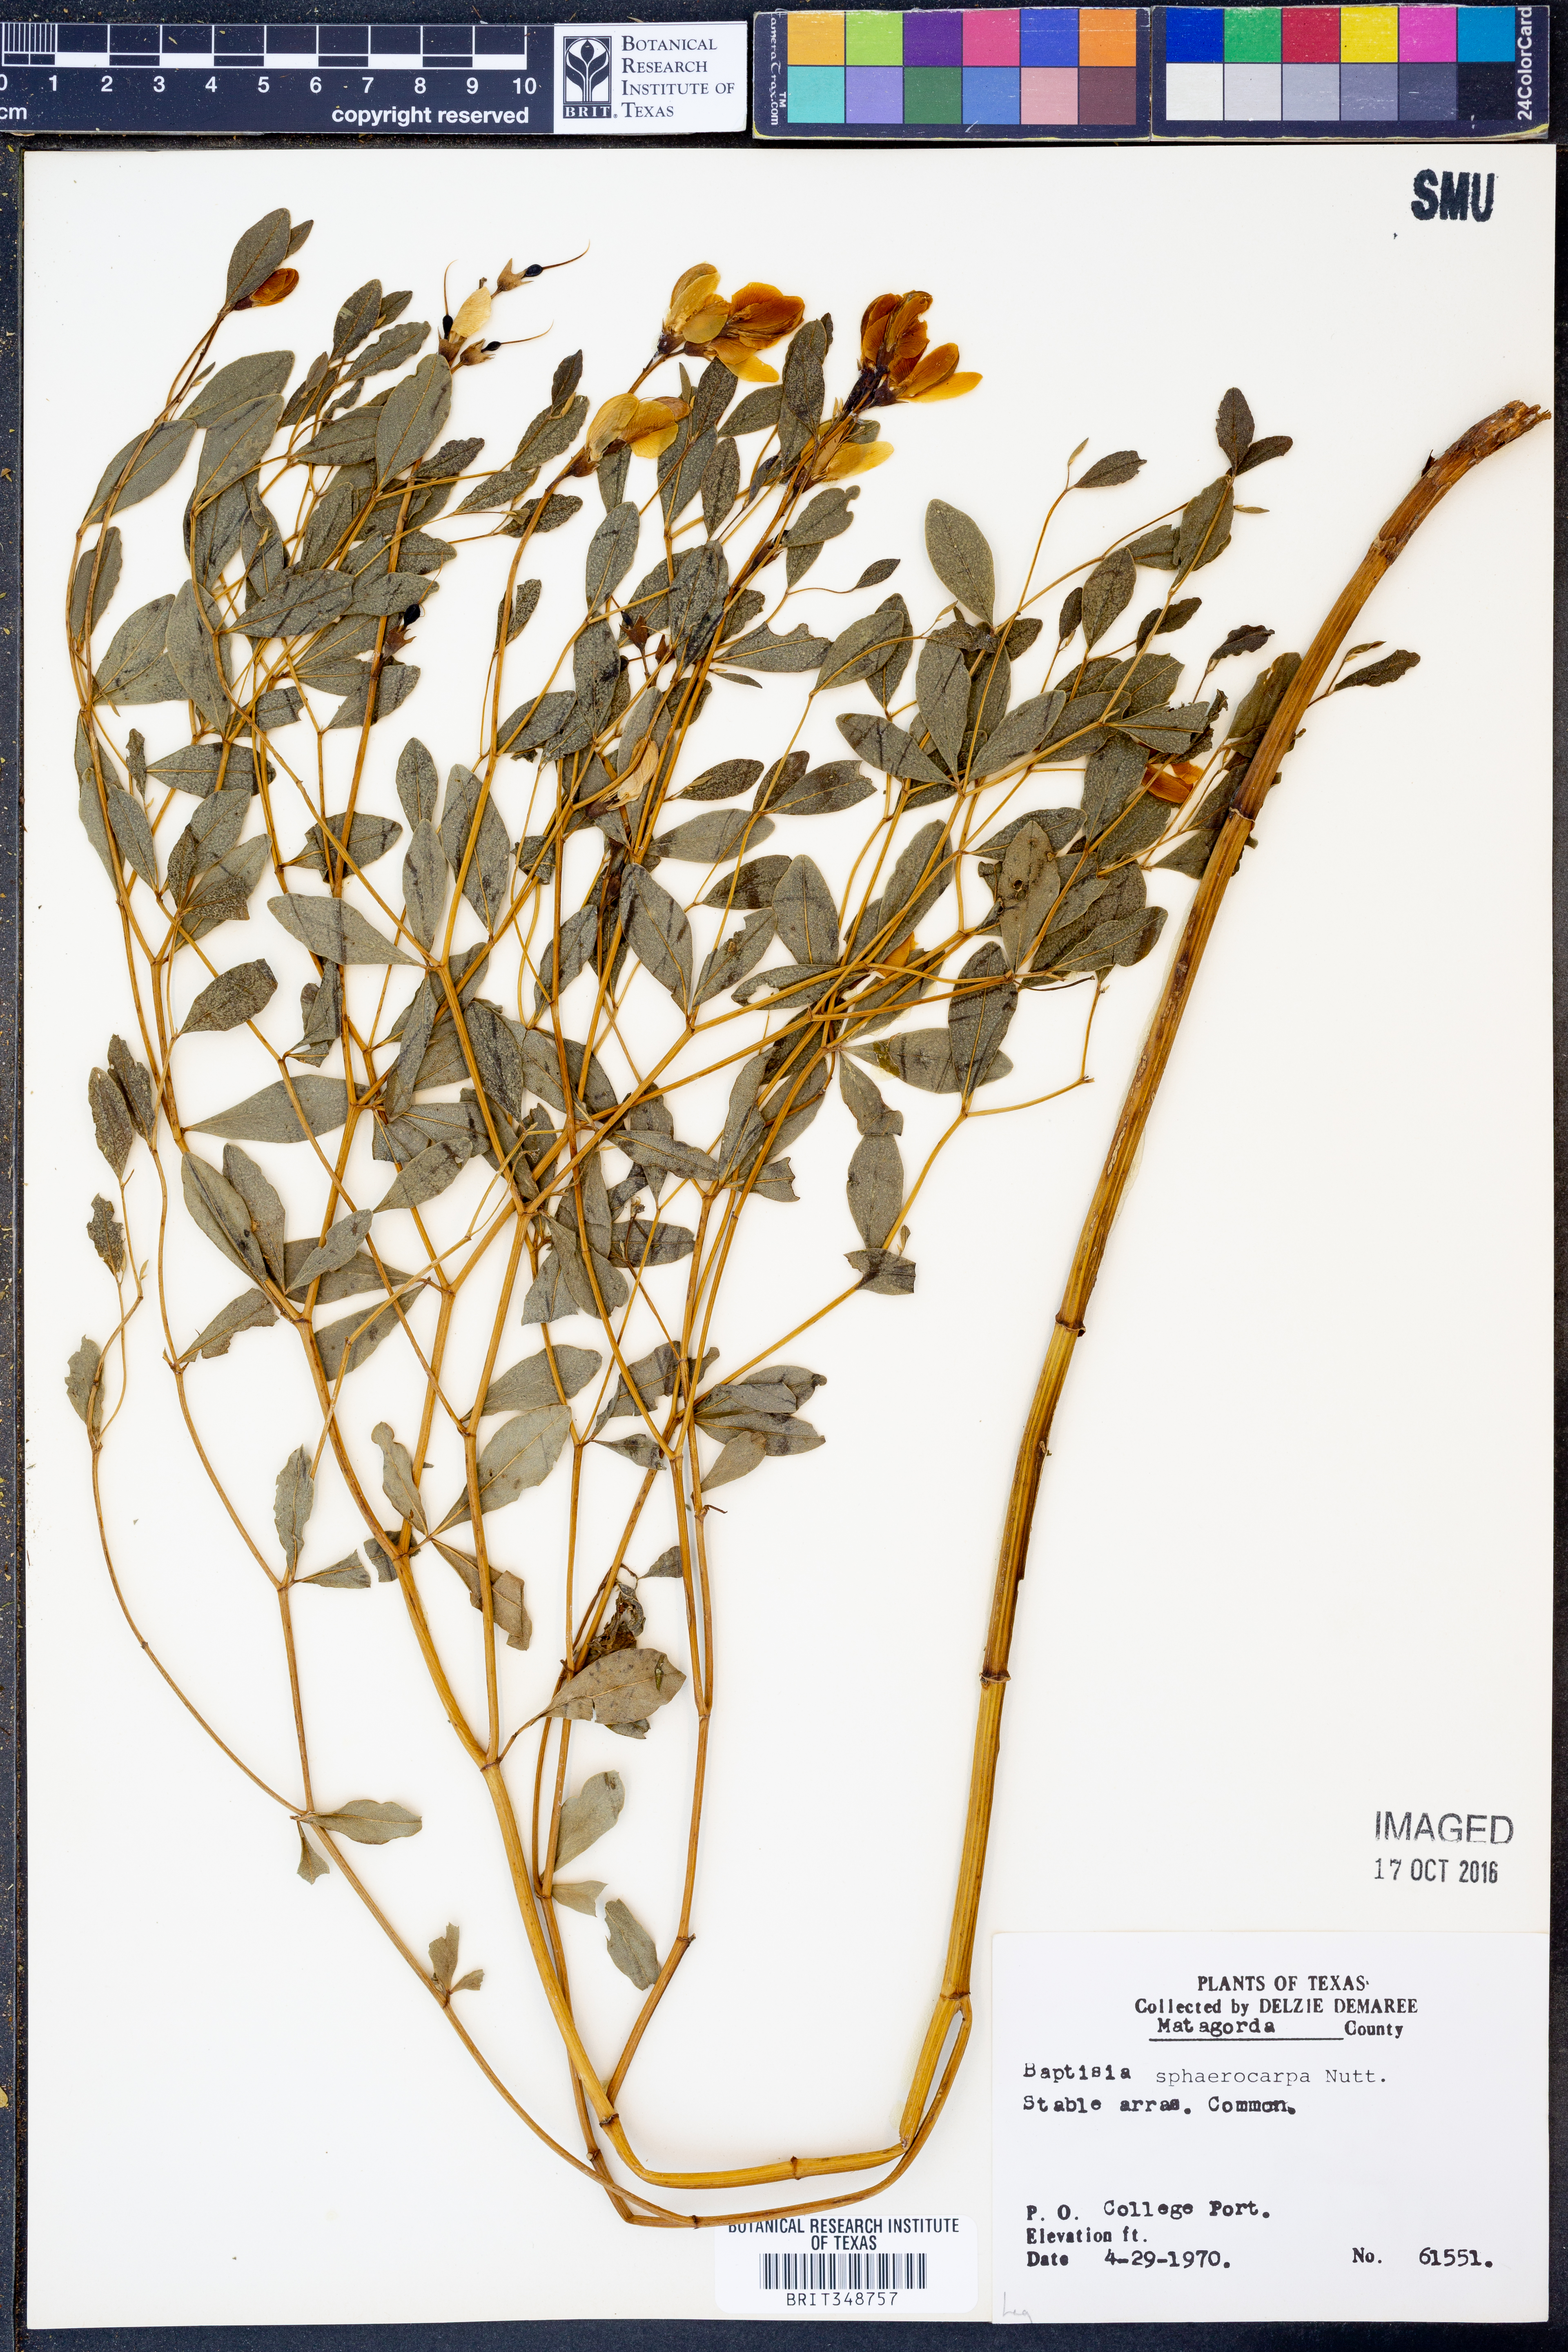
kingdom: Plantae
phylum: Tracheophyta
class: Magnoliopsida
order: Fabales
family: Fabaceae
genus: Baptisia
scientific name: Baptisia sphaerocarpa
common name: Round wild indigo
